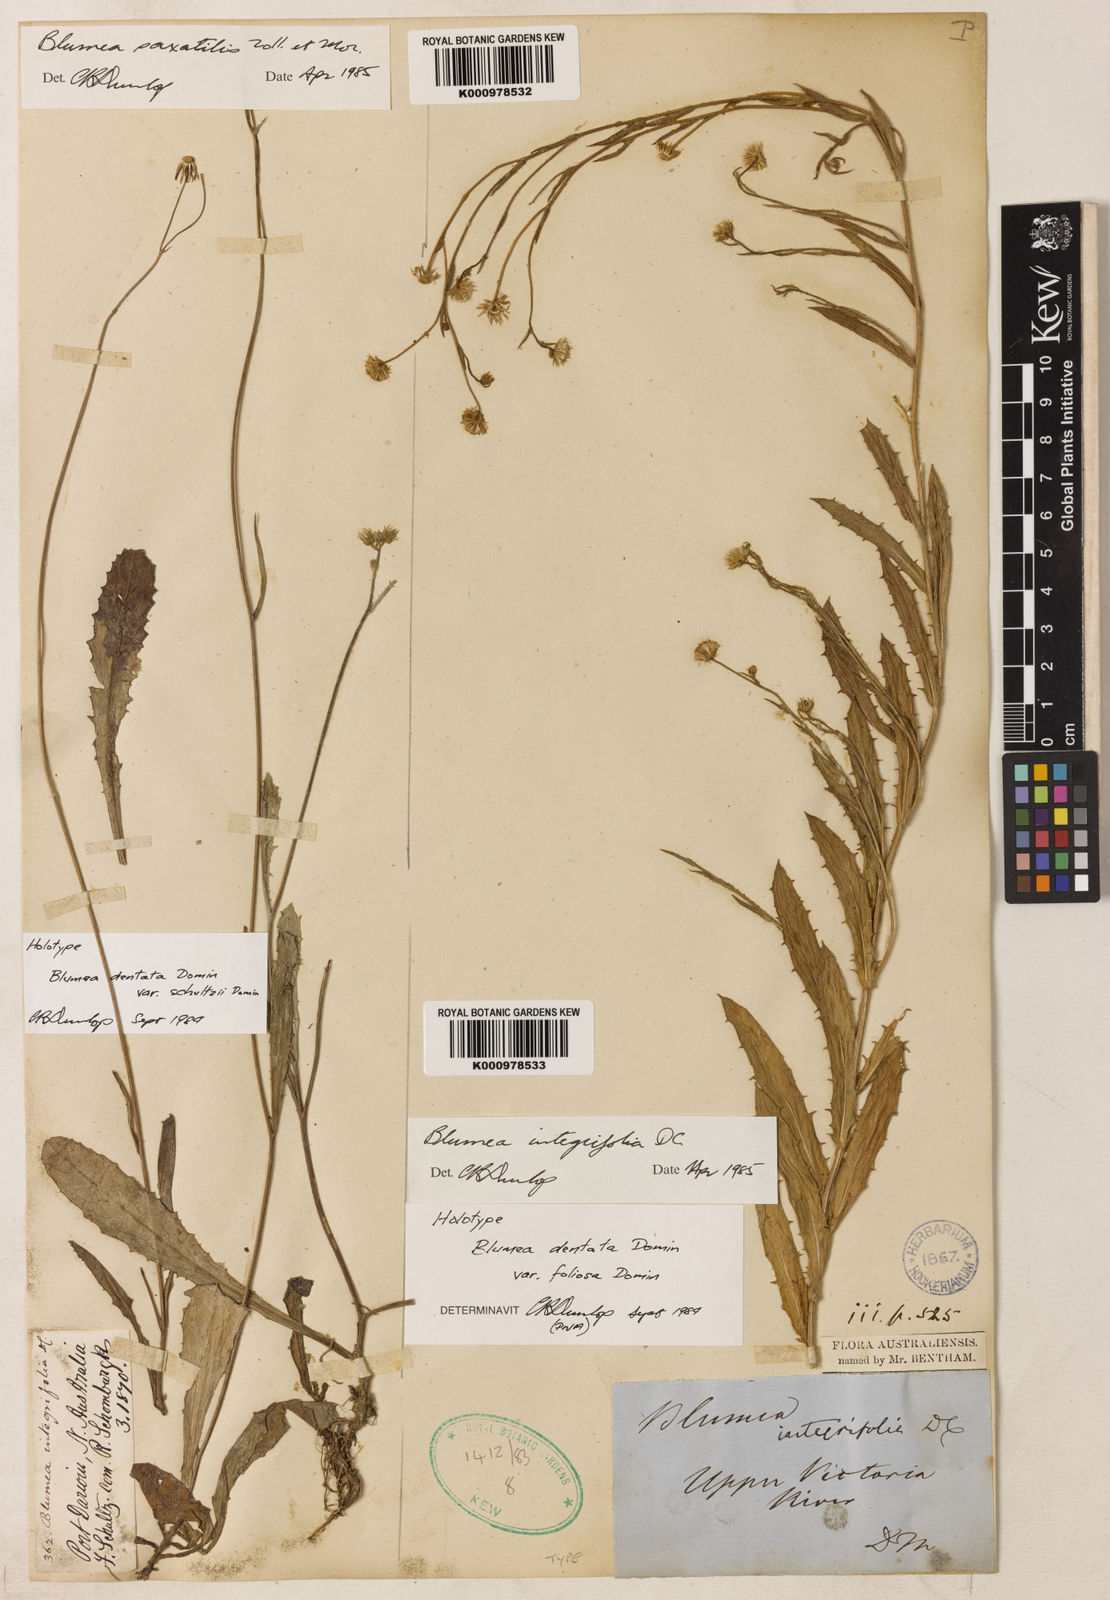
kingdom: Plantae
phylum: Tracheophyta
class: Magnoliopsida
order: Asterales
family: Asteraceae
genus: Blumea
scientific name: Blumea integrifolia
